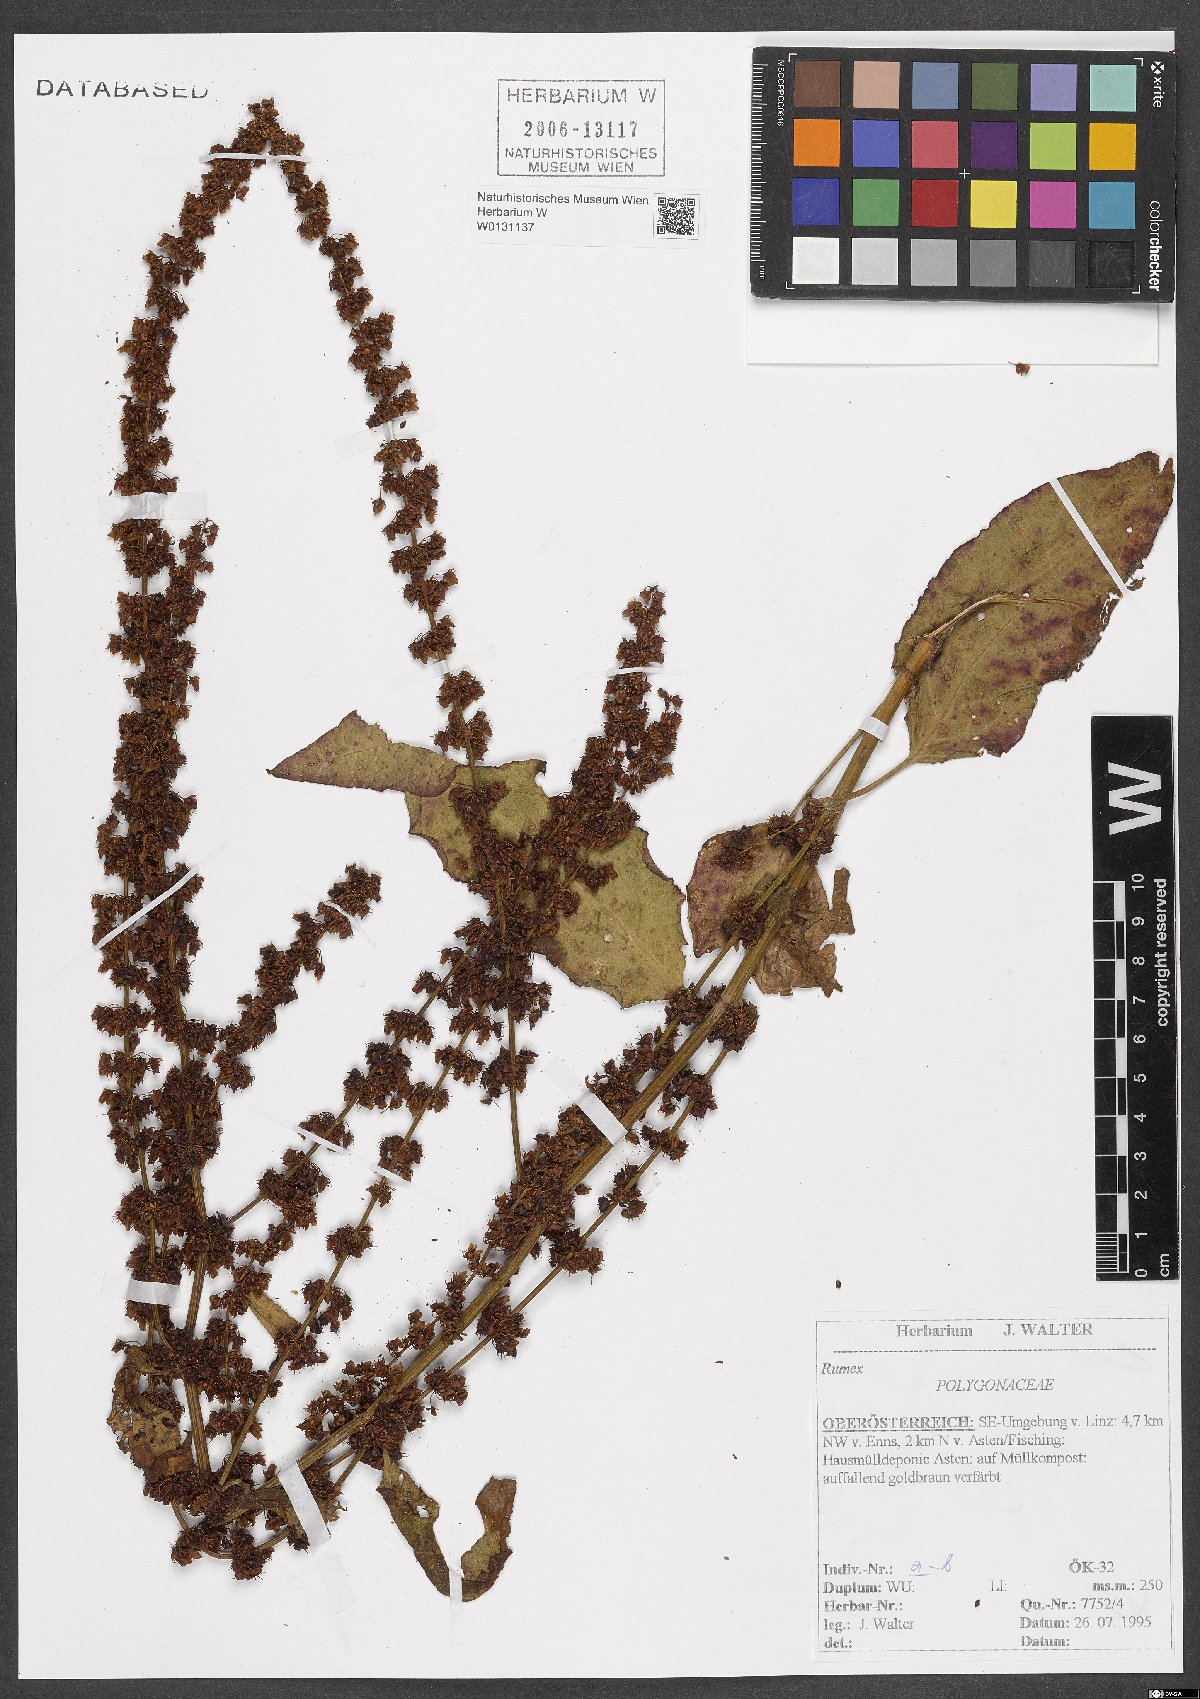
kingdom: Plantae
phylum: Tracheophyta
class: Magnoliopsida
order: Caryophyllales
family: Polygonaceae
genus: Rumex
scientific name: Rumex
